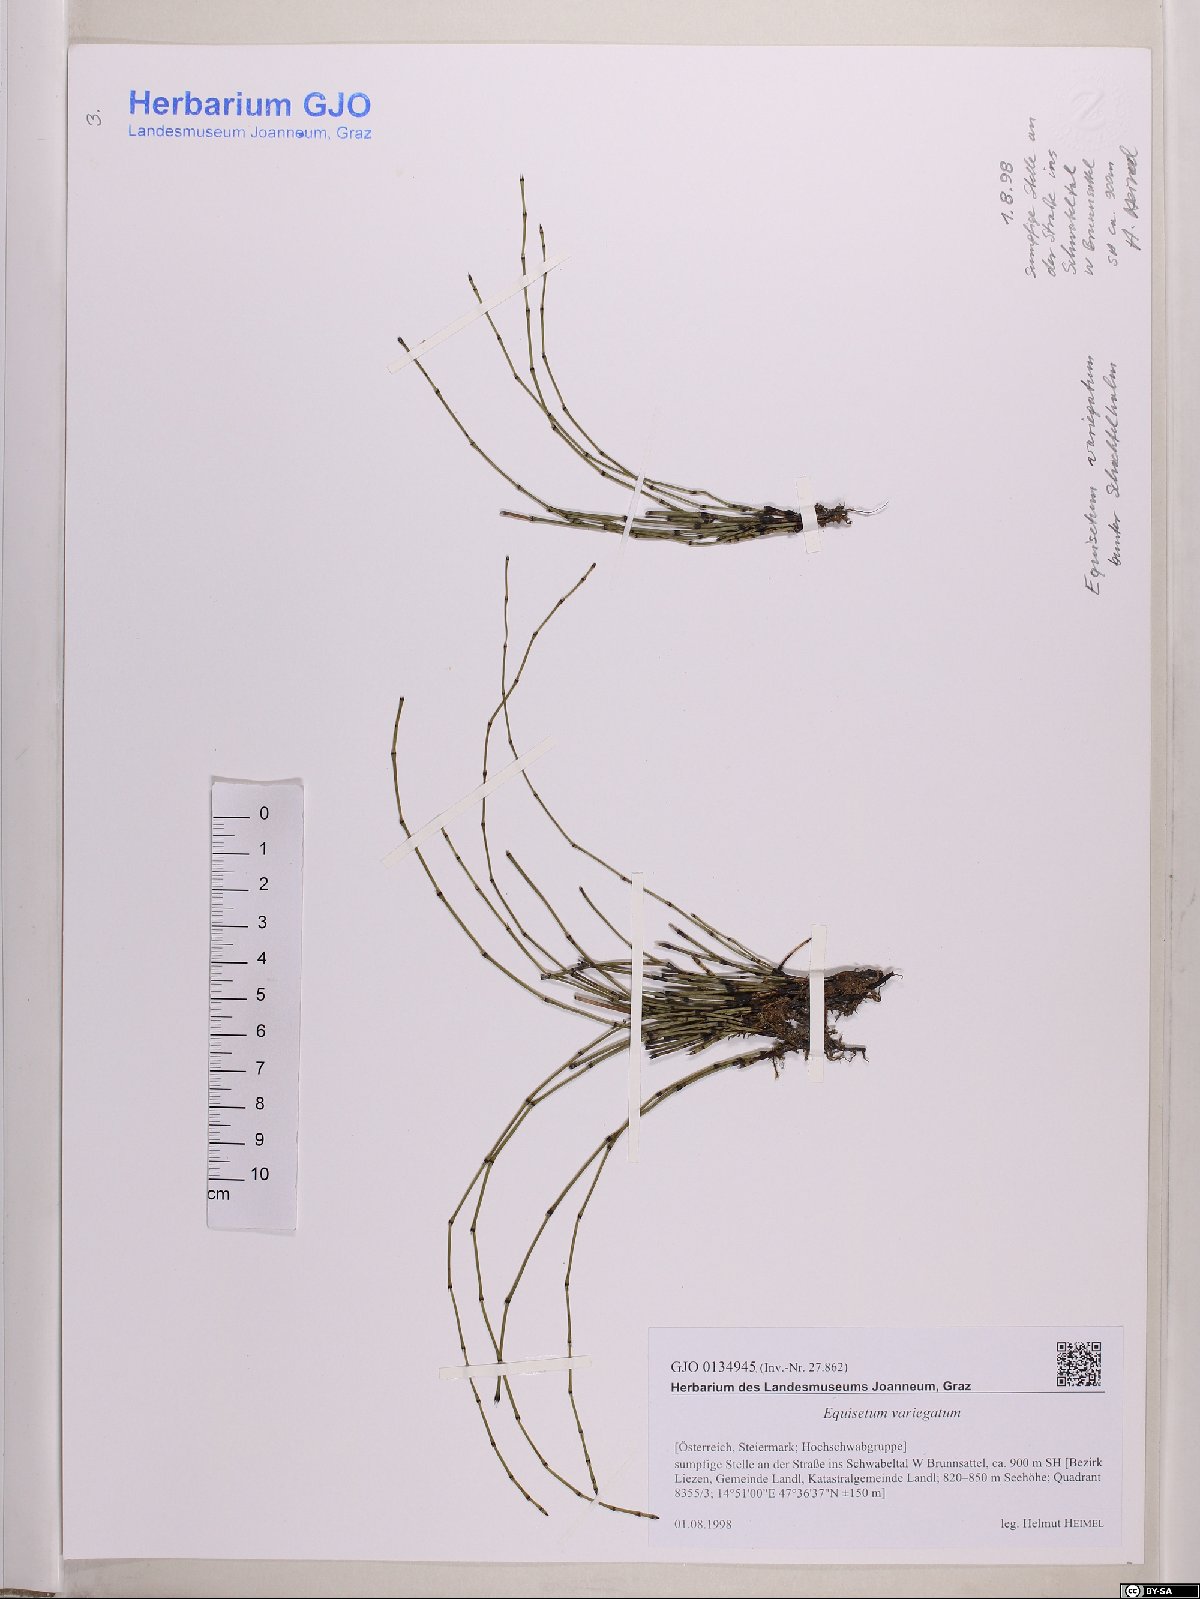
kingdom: Plantae
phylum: Tracheophyta
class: Polypodiopsida
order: Equisetales
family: Equisetaceae
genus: Equisetum
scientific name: Equisetum variegatum
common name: Variegated horsetail
